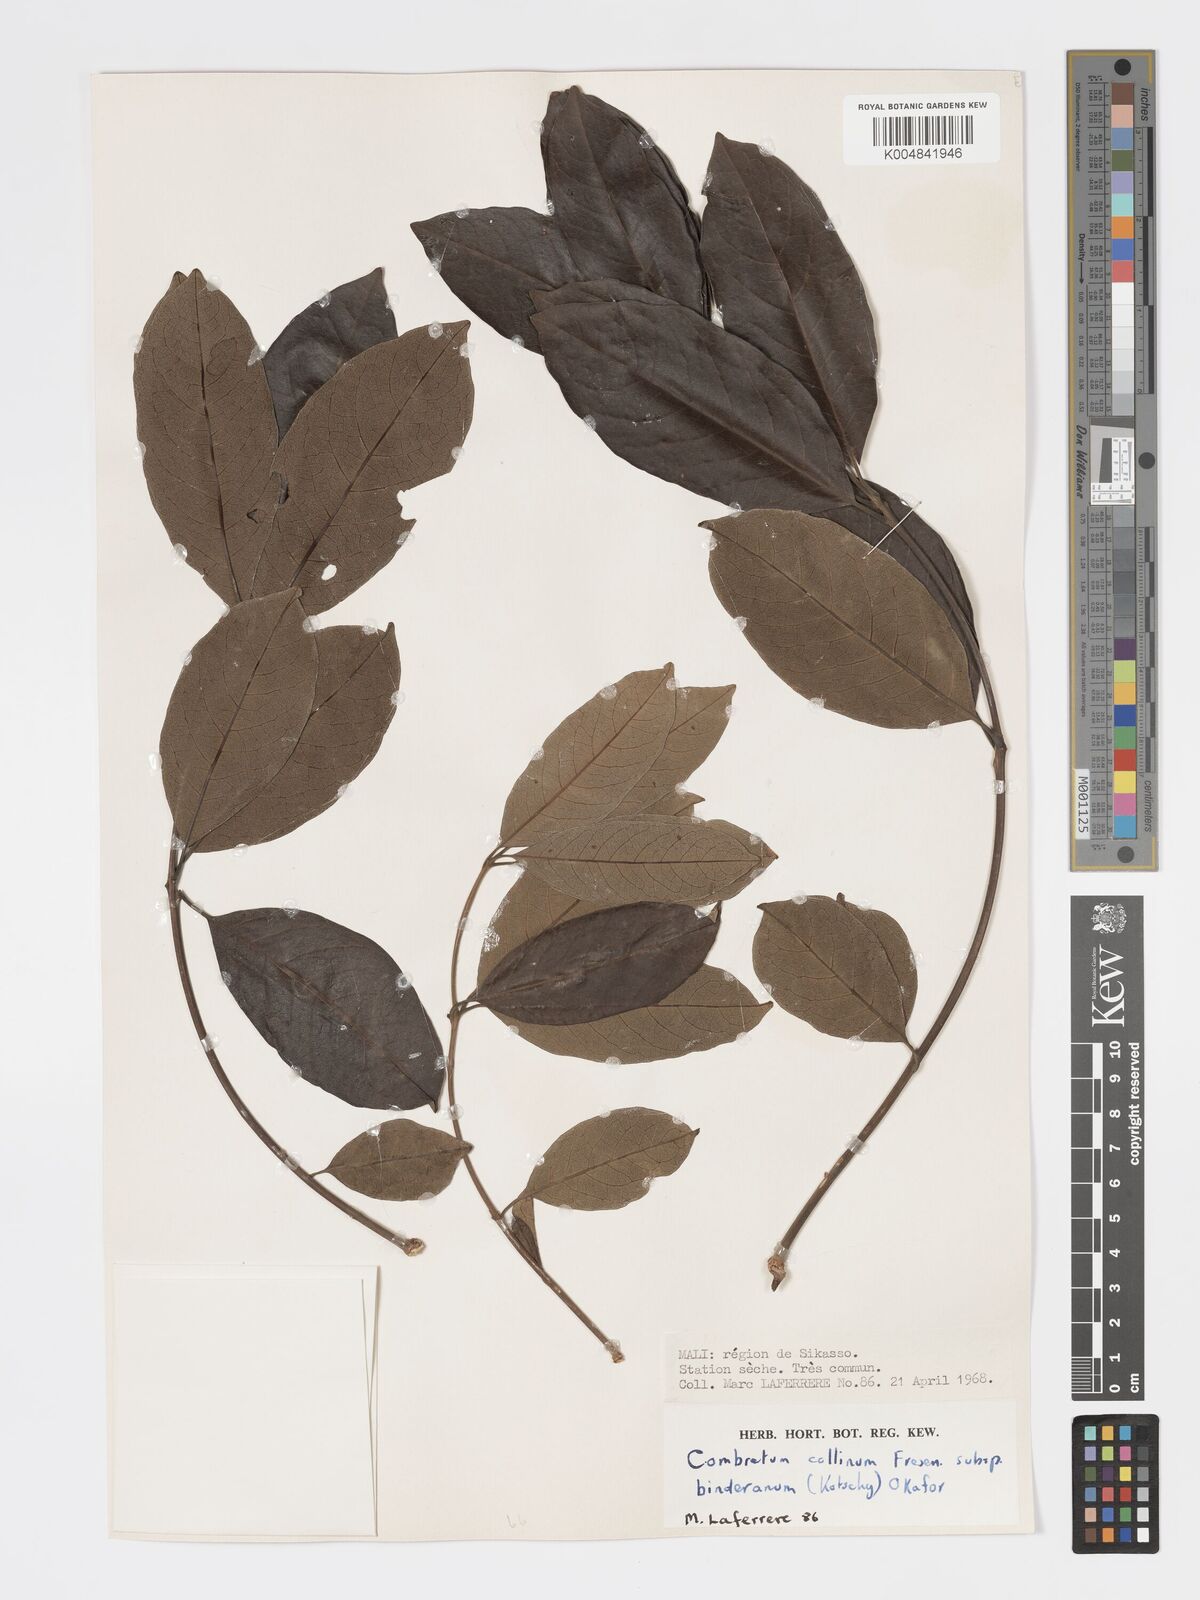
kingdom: Plantae
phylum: Tracheophyta
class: Magnoliopsida
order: Myrtales
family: Combretaceae
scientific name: Combretaceae
